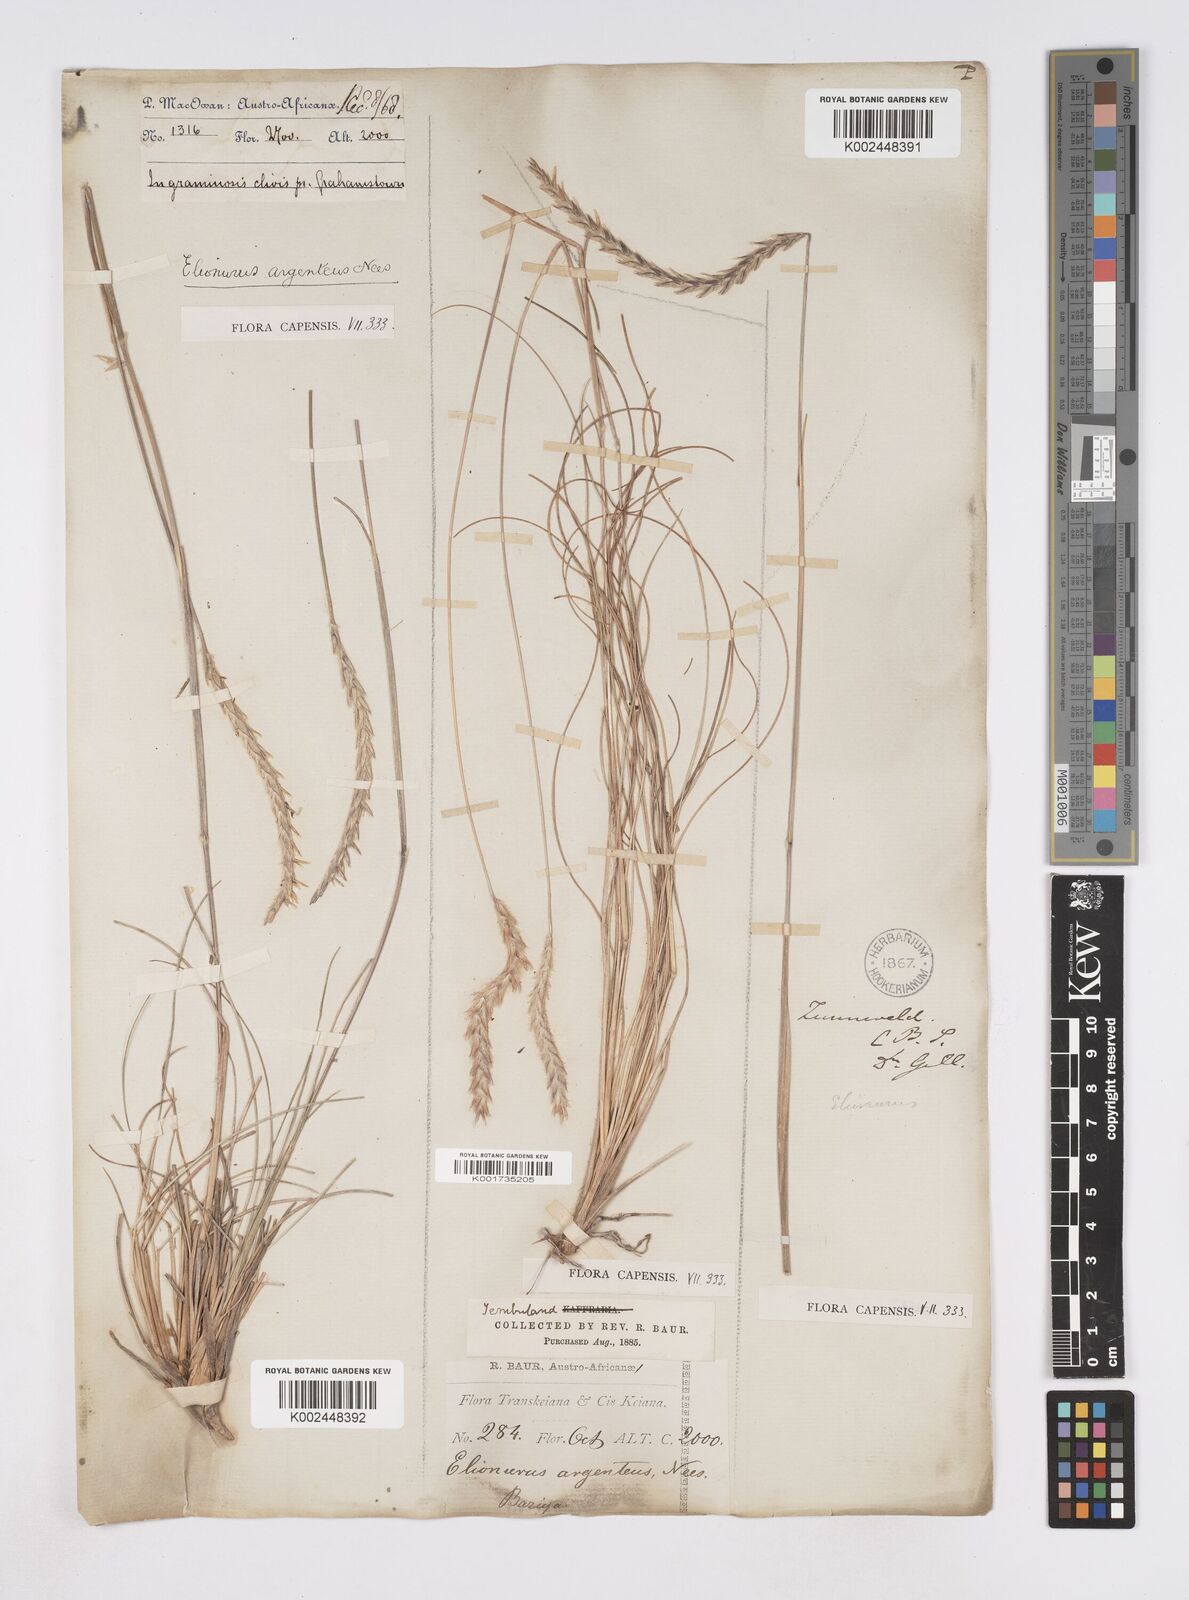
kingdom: Plantae
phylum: Tracheophyta
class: Liliopsida
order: Poales
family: Poaceae
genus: Elionurus
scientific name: Elionurus muticus
